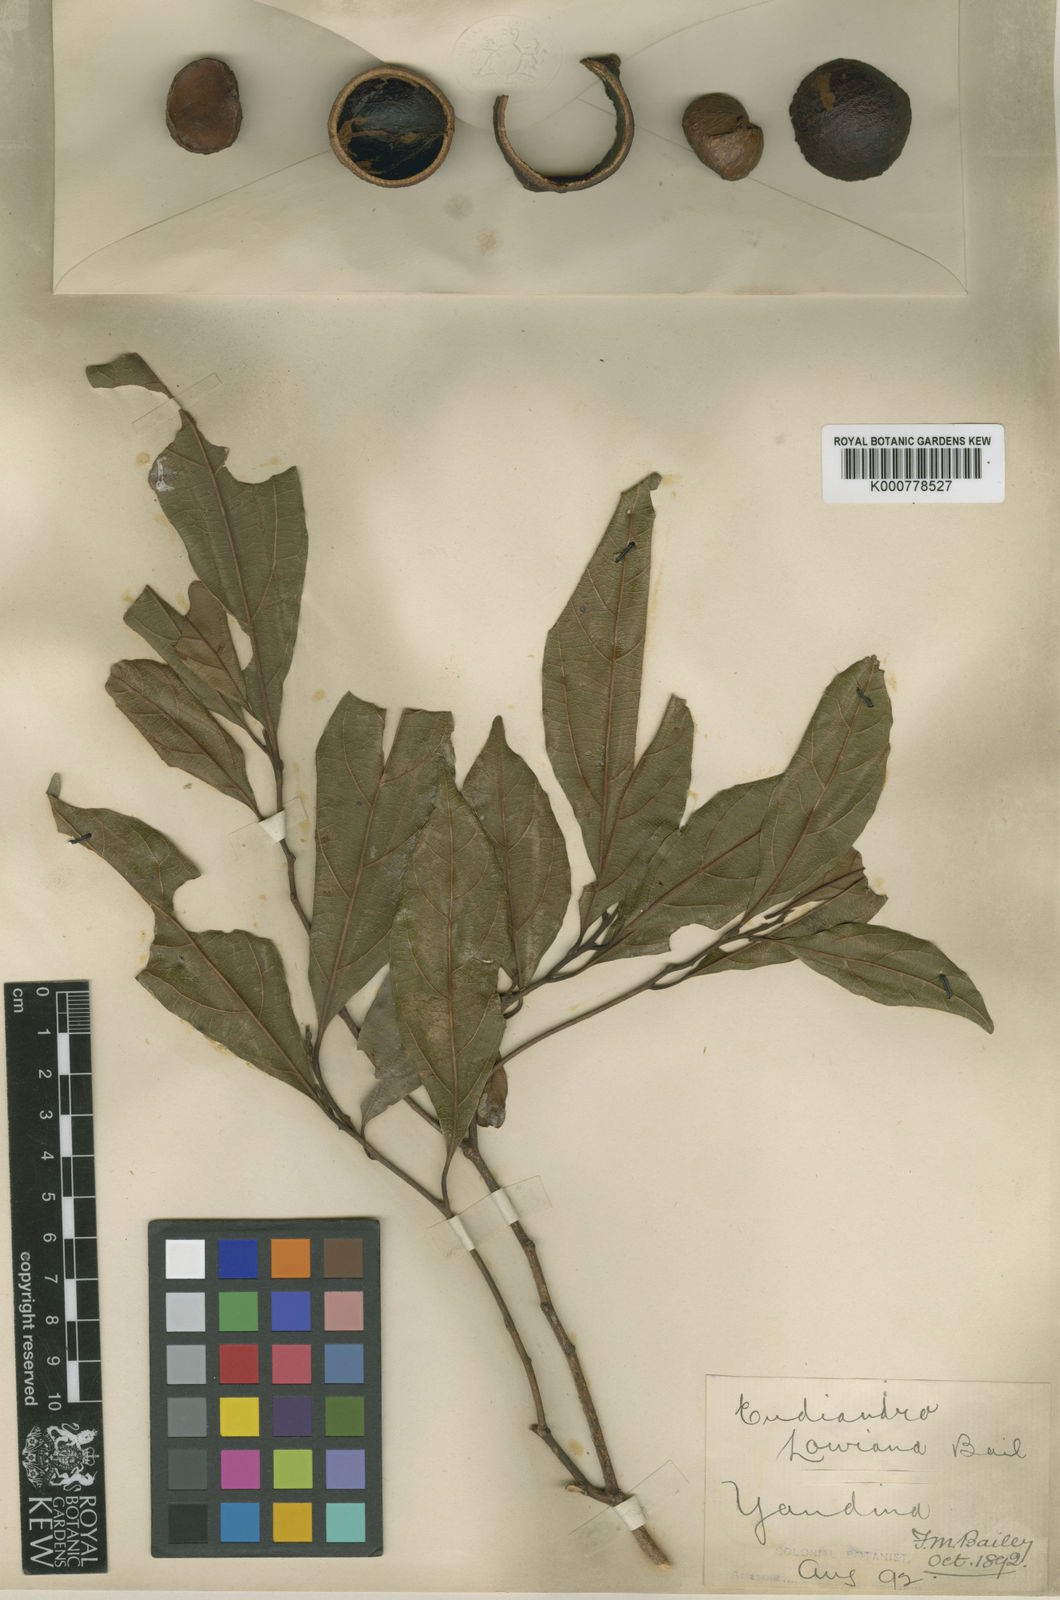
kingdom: Plantae
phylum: Tracheophyta
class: Magnoliopsida
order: Laurales
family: Lauraceae
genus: Endiandra
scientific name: Endiandra virens
